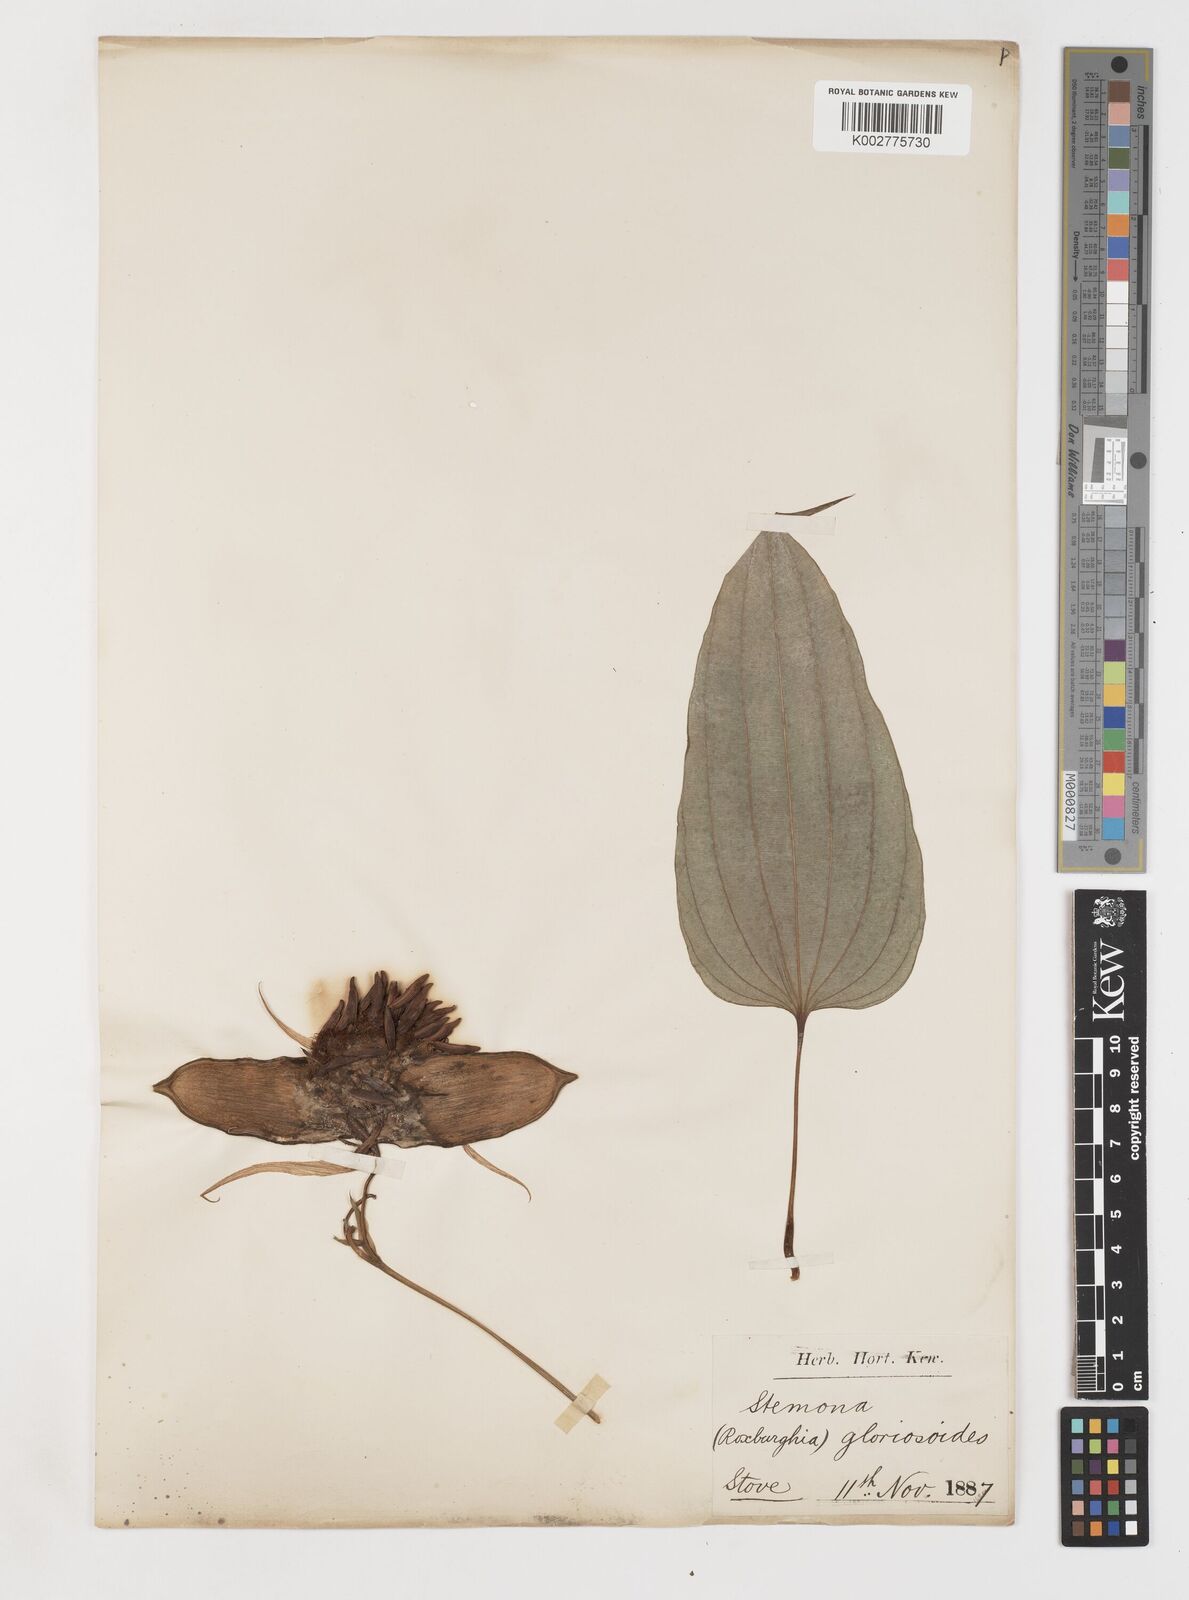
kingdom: Plantae
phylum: Tracheophyta
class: Liliopsida
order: Pandanales
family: Stemonaceae
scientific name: Stemonaceae
